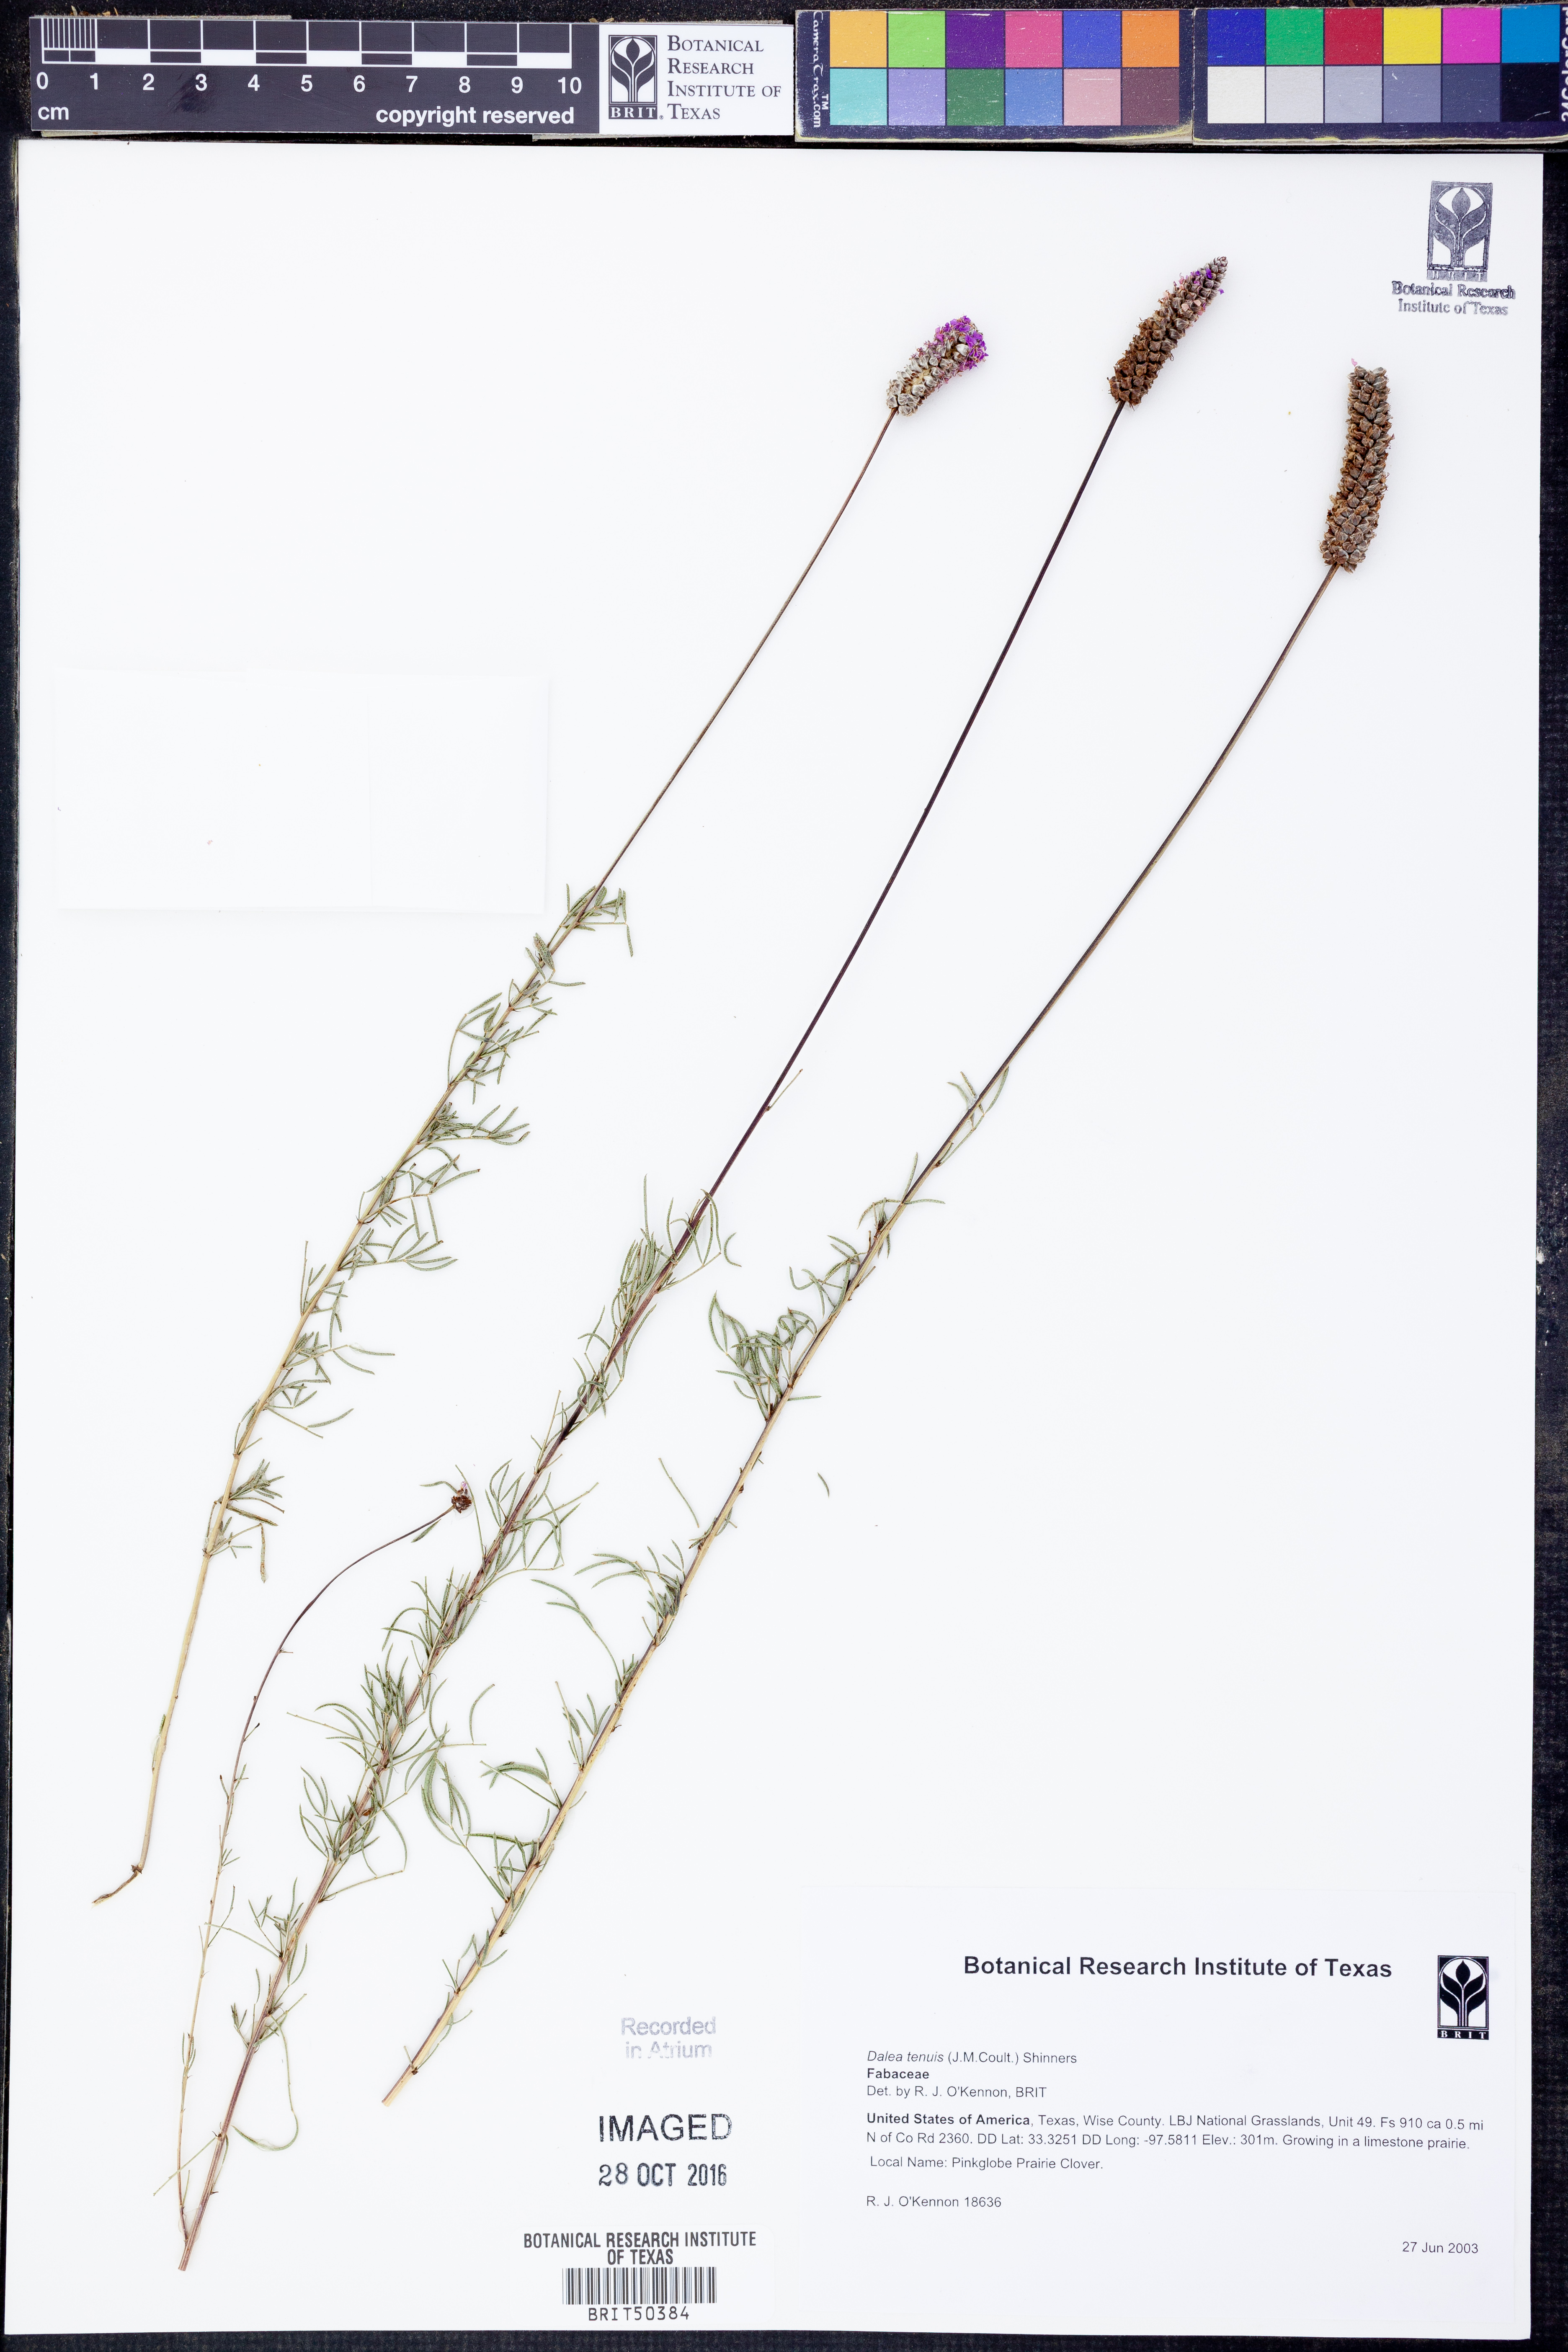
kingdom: Plantae
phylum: Tracheophyta
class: Magnoliopsida
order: Fabales
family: Fabaceae
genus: Dalea
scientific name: Dalea tenuis
